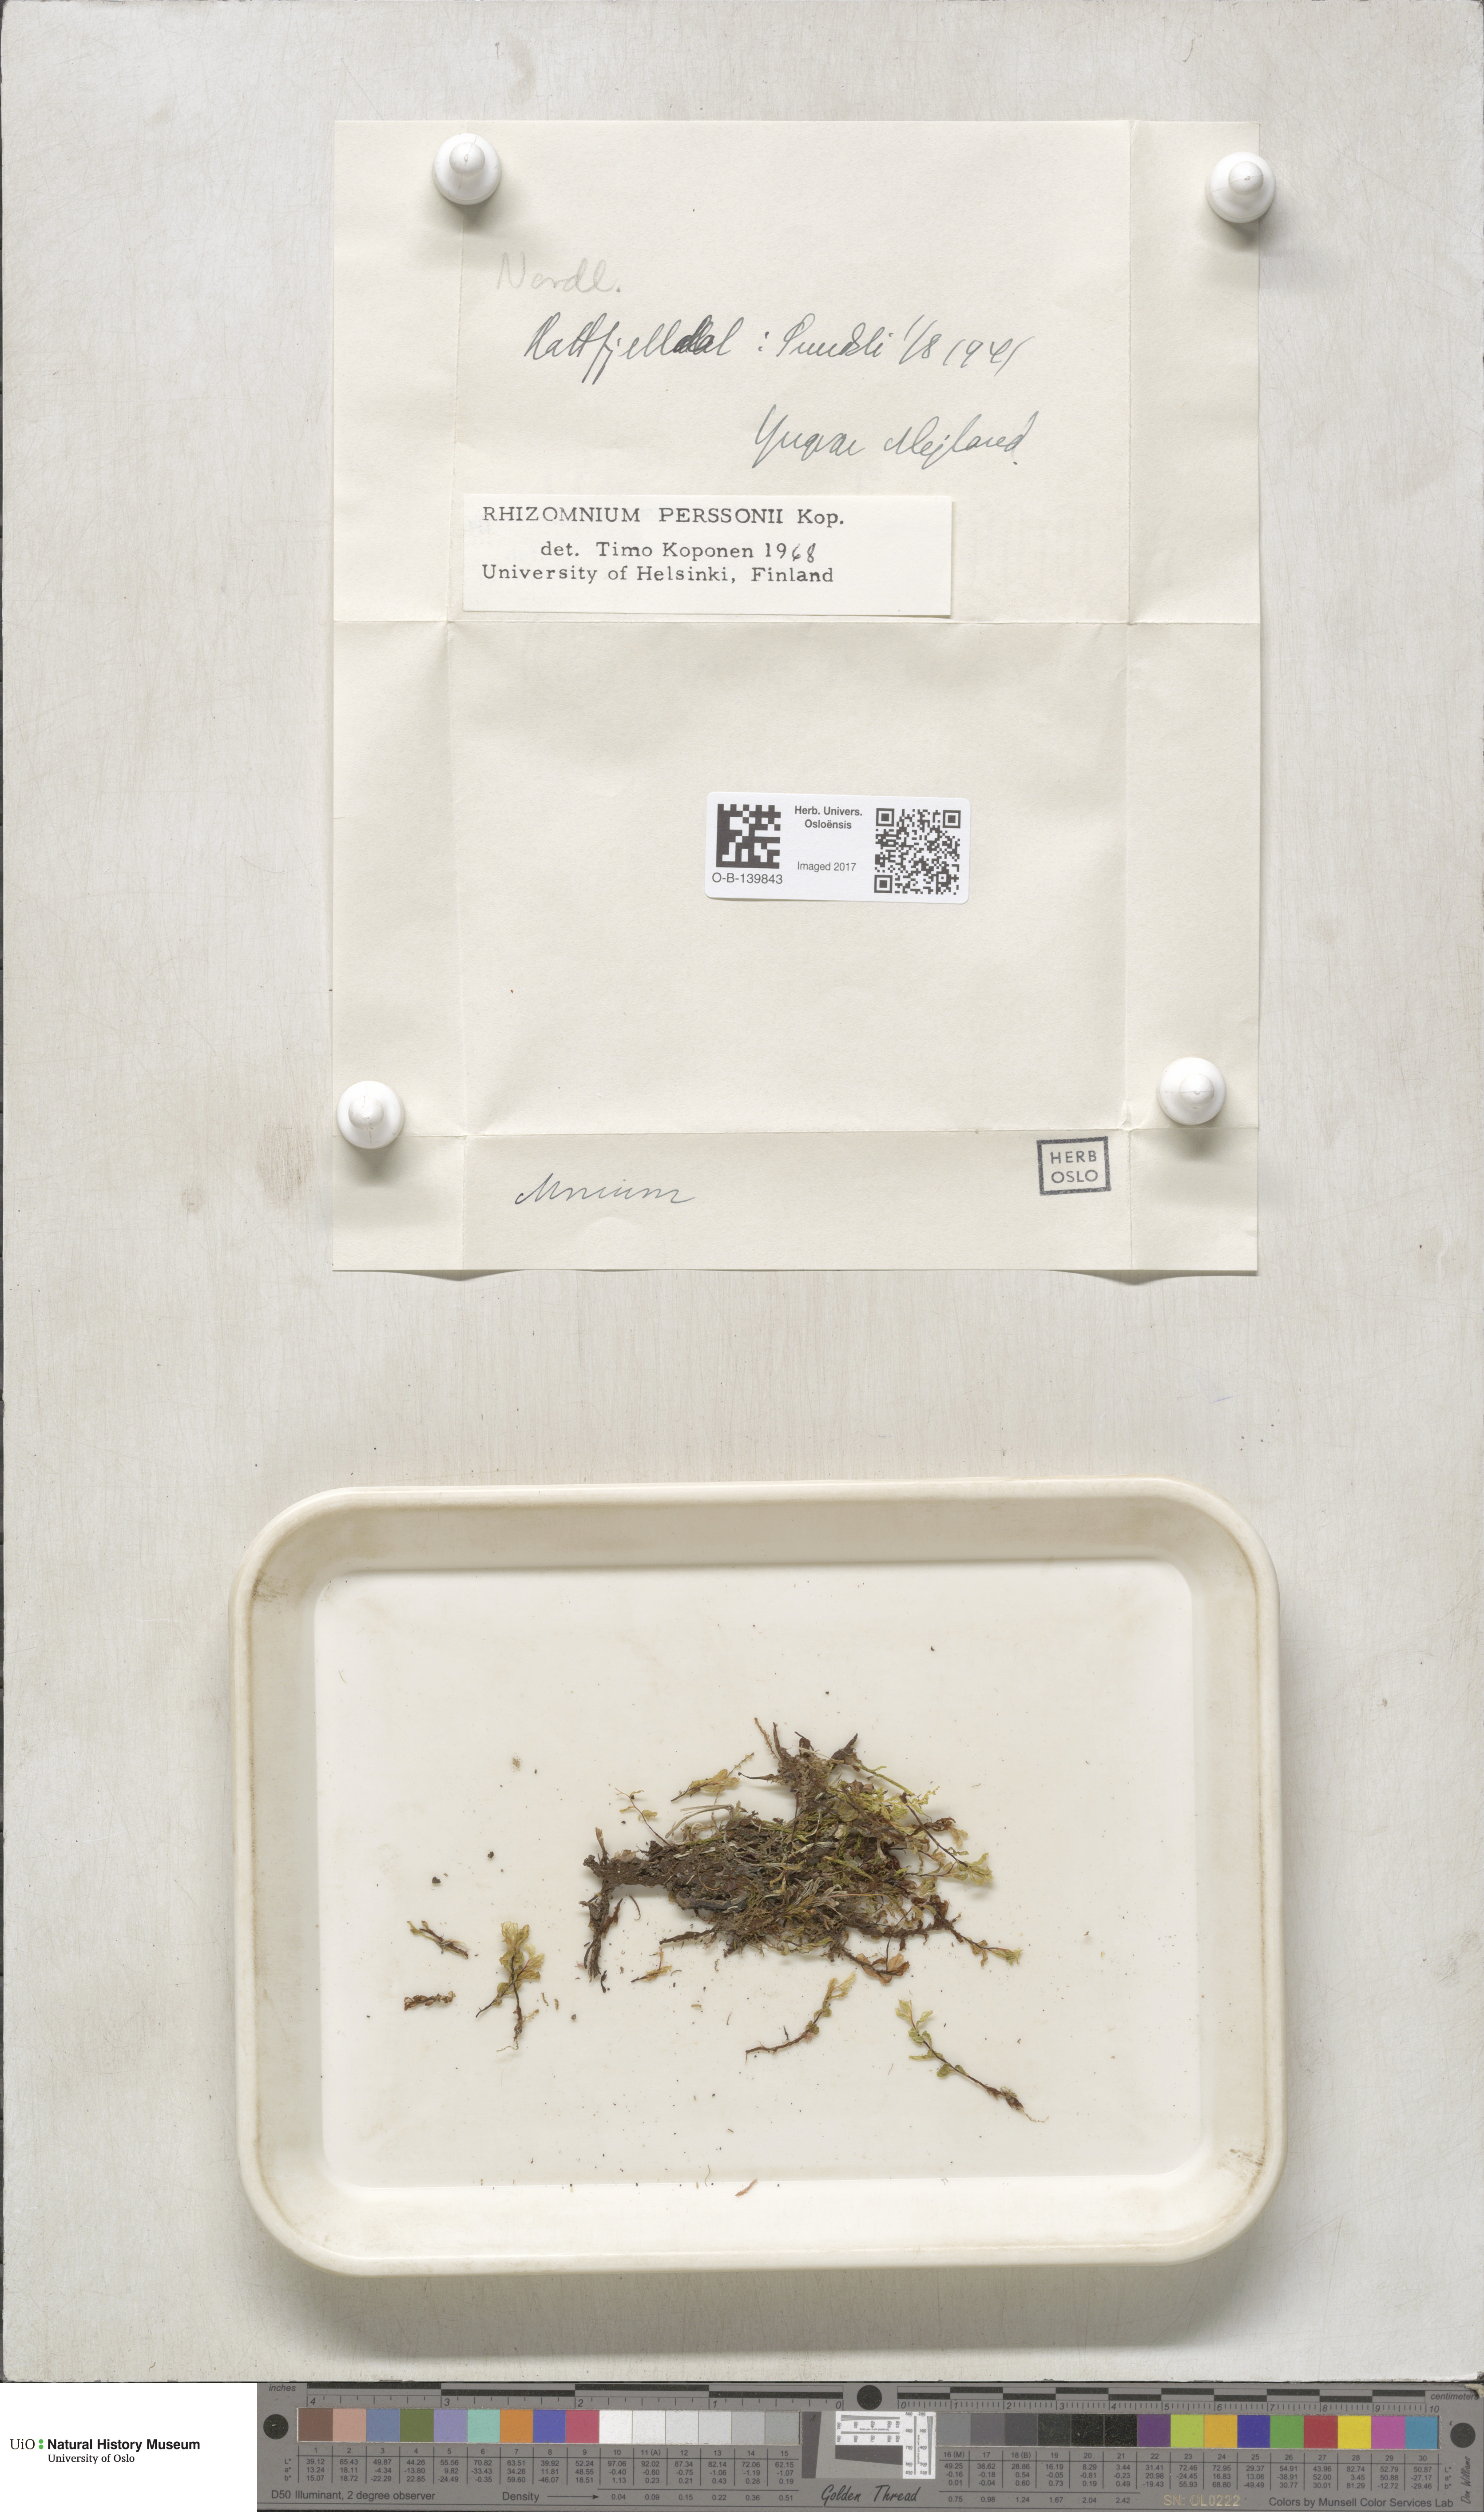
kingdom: Plantae
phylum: Bryophyta
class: Bryopsida
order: Bryales
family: Mniaceae
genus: Rhizomnium
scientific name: Rhizomnium magnifolium
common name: Large-leaved leafy moss
